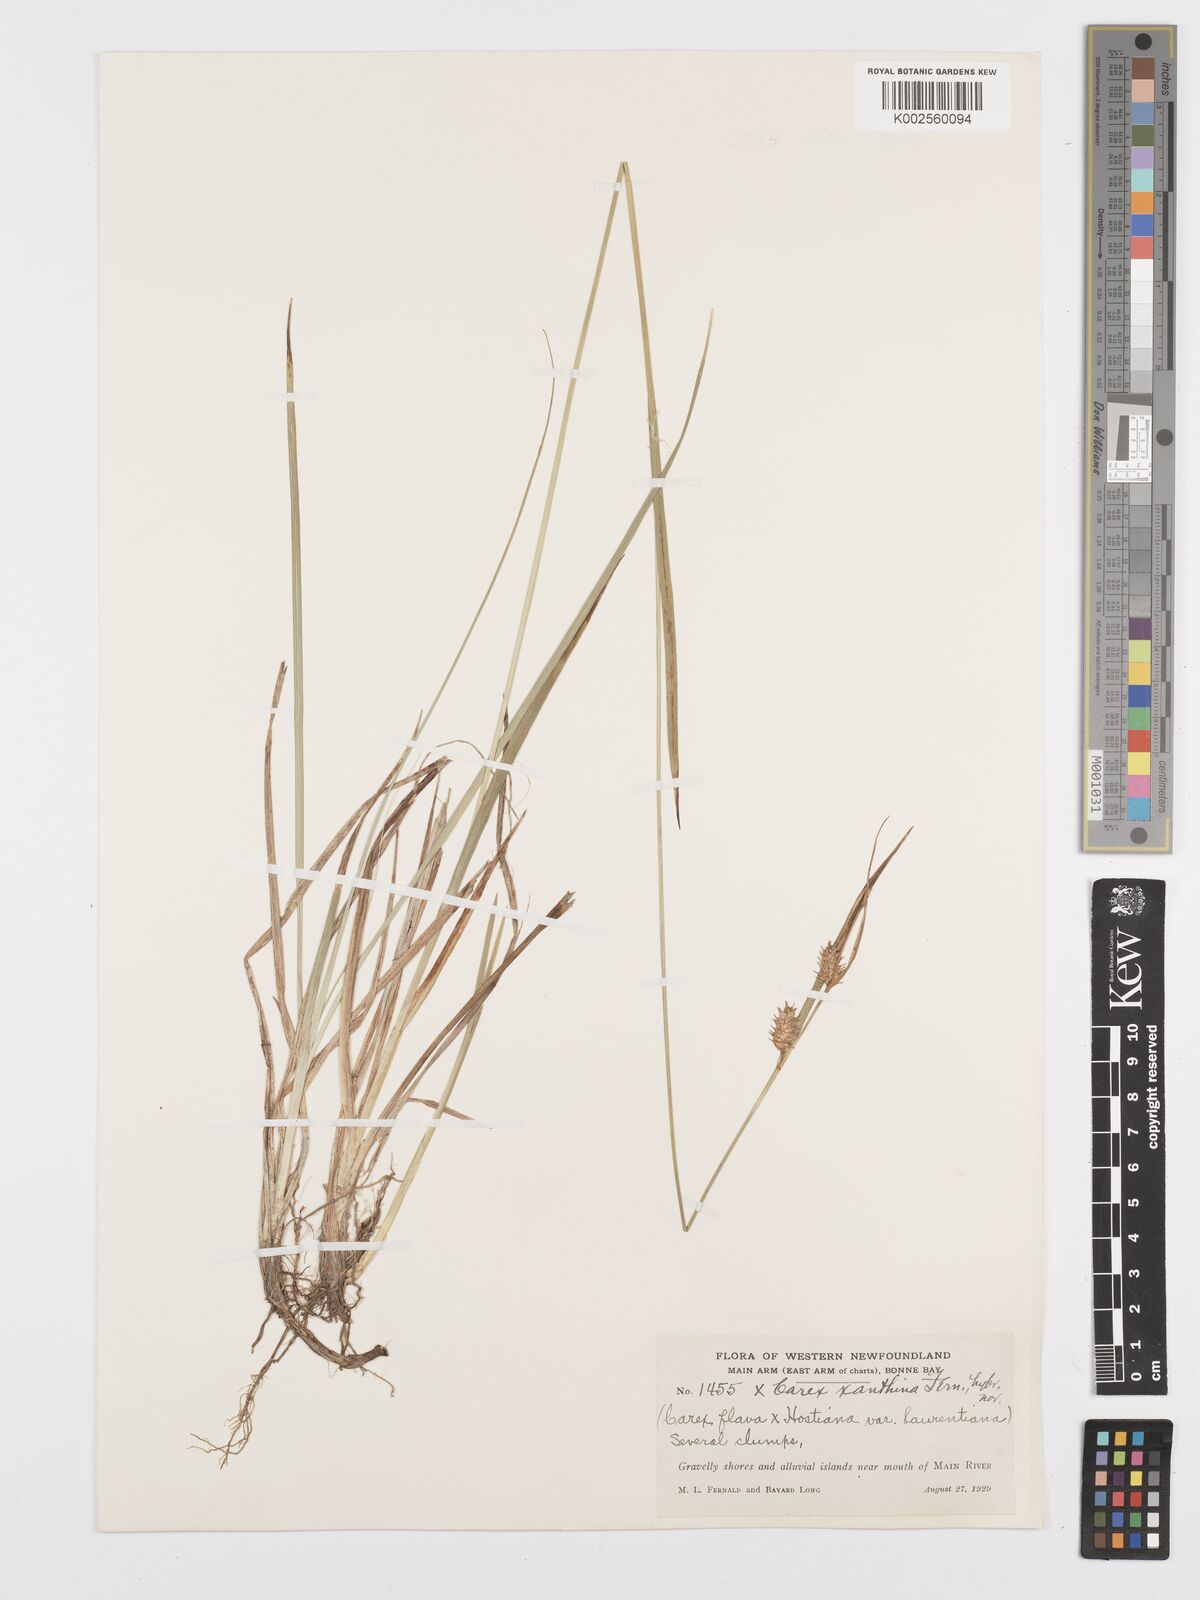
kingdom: Plantae
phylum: Tracheophyta
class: Liliopsida
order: Poales
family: Cyperaceae
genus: Carex
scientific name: Carex hostiana
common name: Tawny sedge
